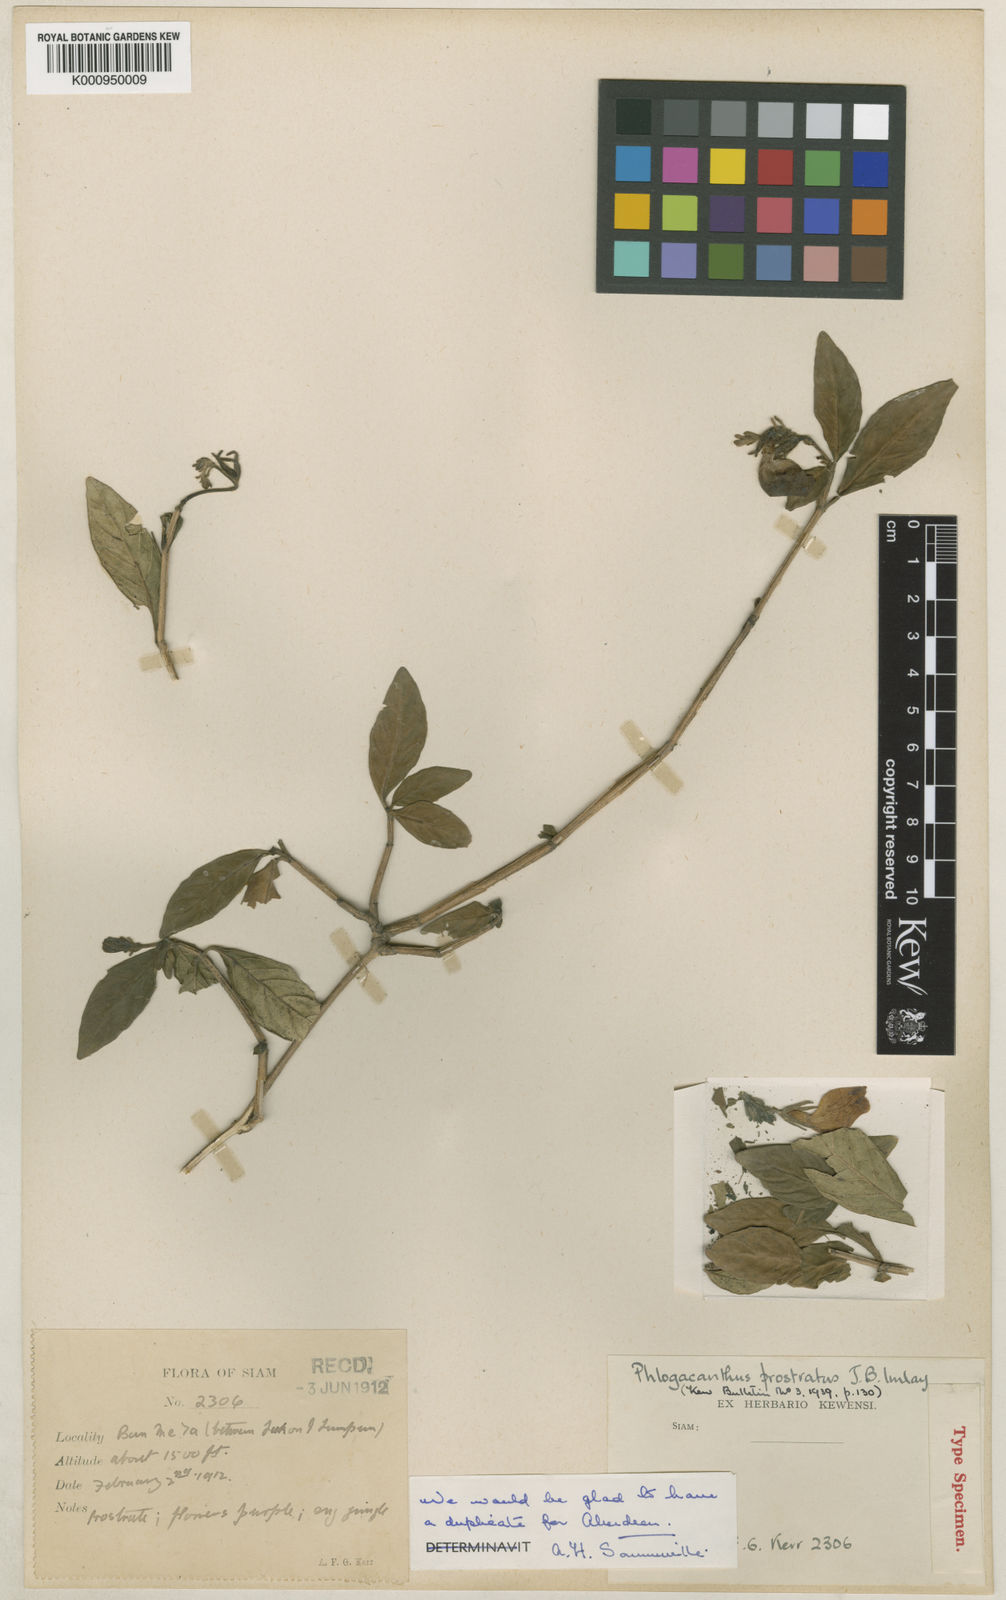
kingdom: Plantae
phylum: Tracheophyta
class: Magnoliopsida
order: Lamiales
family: Acanthaceae
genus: Phlogacanthus
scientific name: Phlogacanthus prostratus
